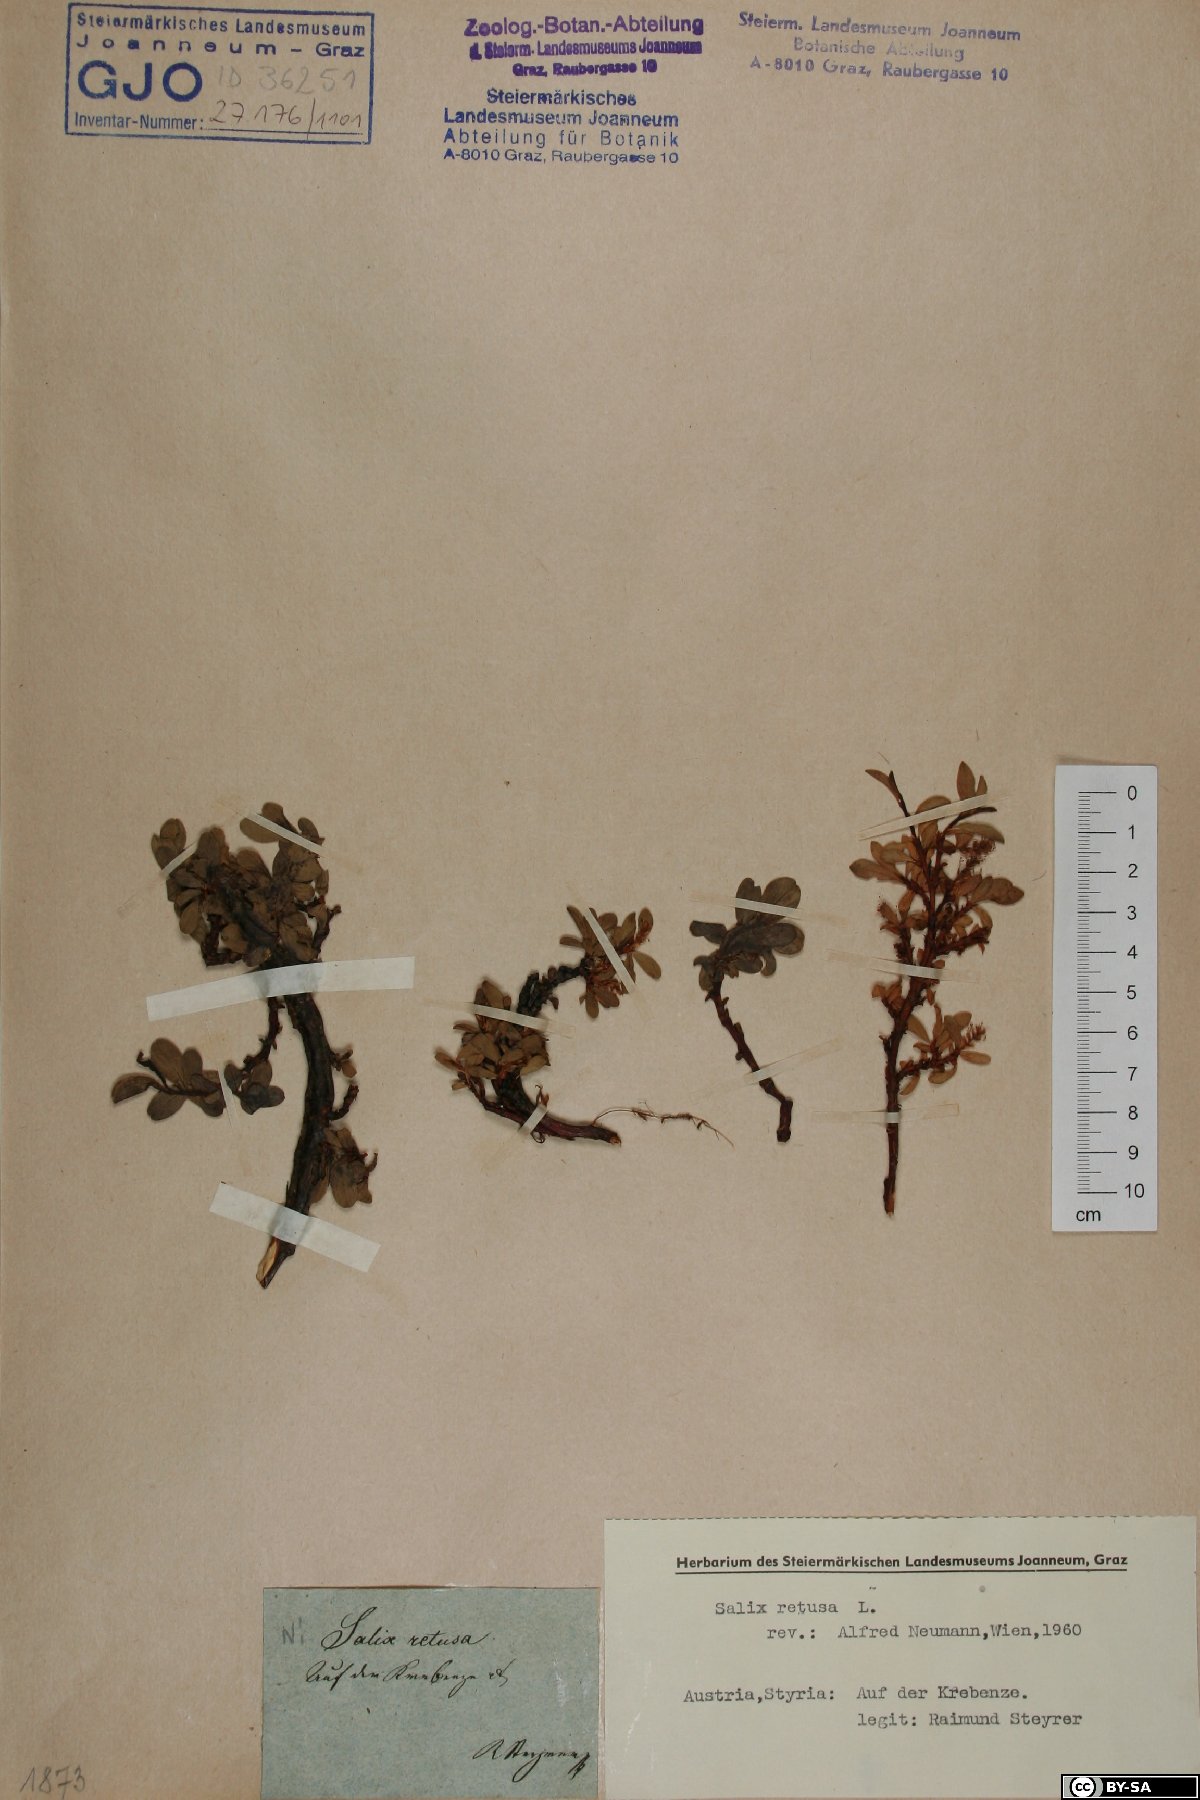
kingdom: Plantae
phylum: Tracheophyta
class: Magnoliopsida
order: Malpighiales
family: Salicaceae
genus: Salix
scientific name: Salix retusa
